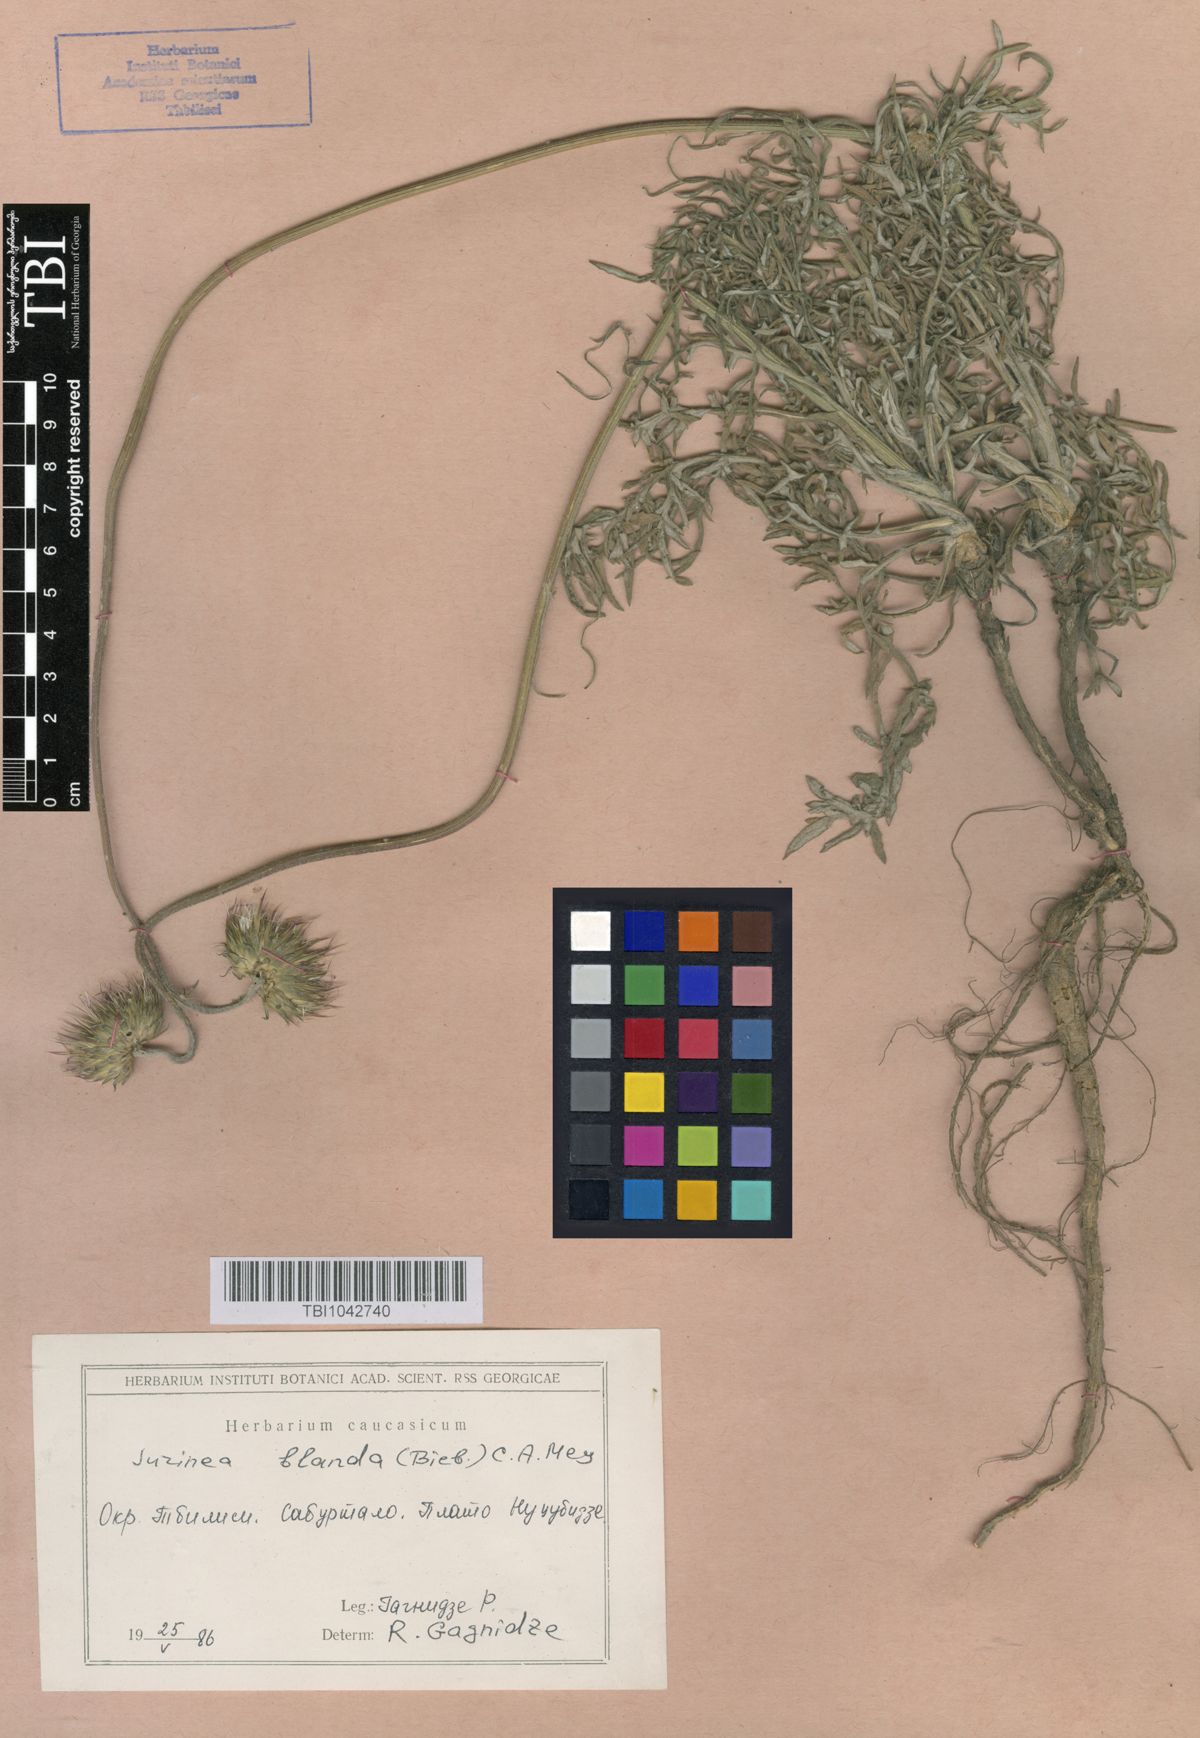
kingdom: Plantae
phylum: Tracheophyta
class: Magnoliopsida
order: Asterales
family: Asteraceae
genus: Jurinea
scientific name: Jurinea blanda
